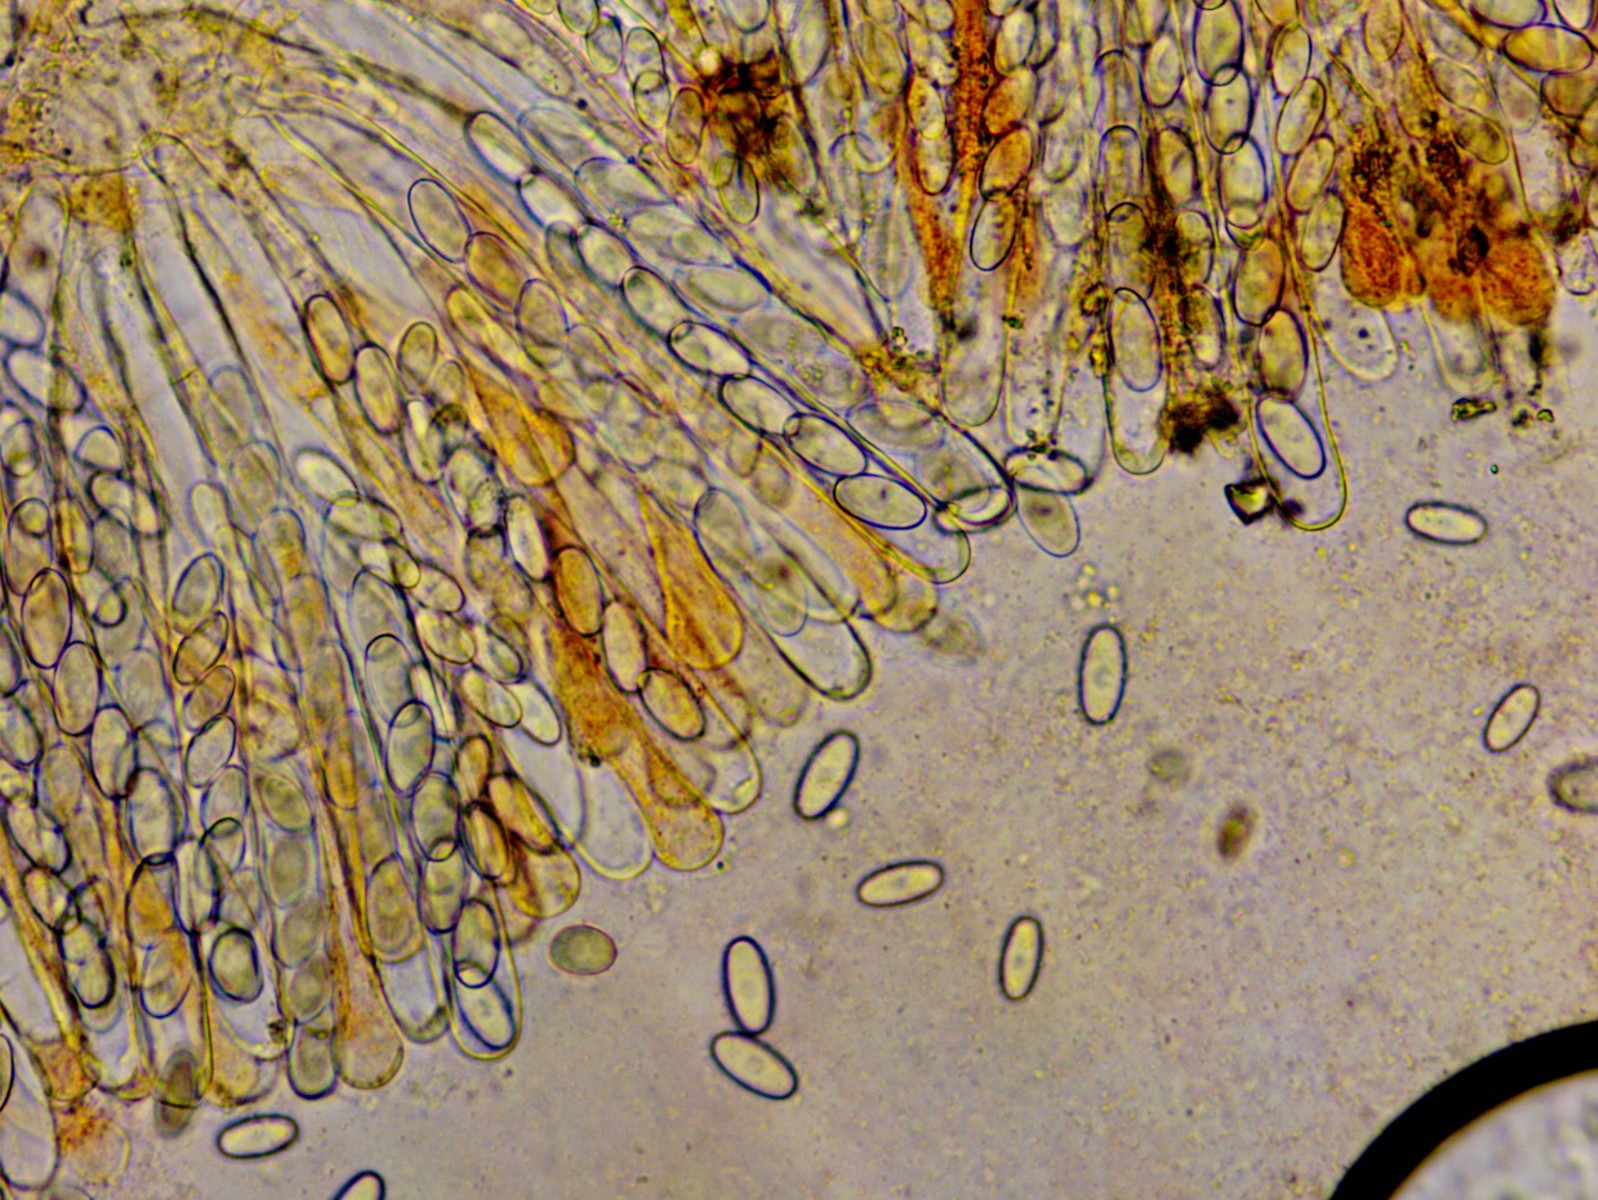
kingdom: Fungi
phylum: Ascomycota
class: Pezizomycetes
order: Pezizales
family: Pyronemataceae
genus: Cheilymenia
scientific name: Cheilymenia granulata
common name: møgbæger
